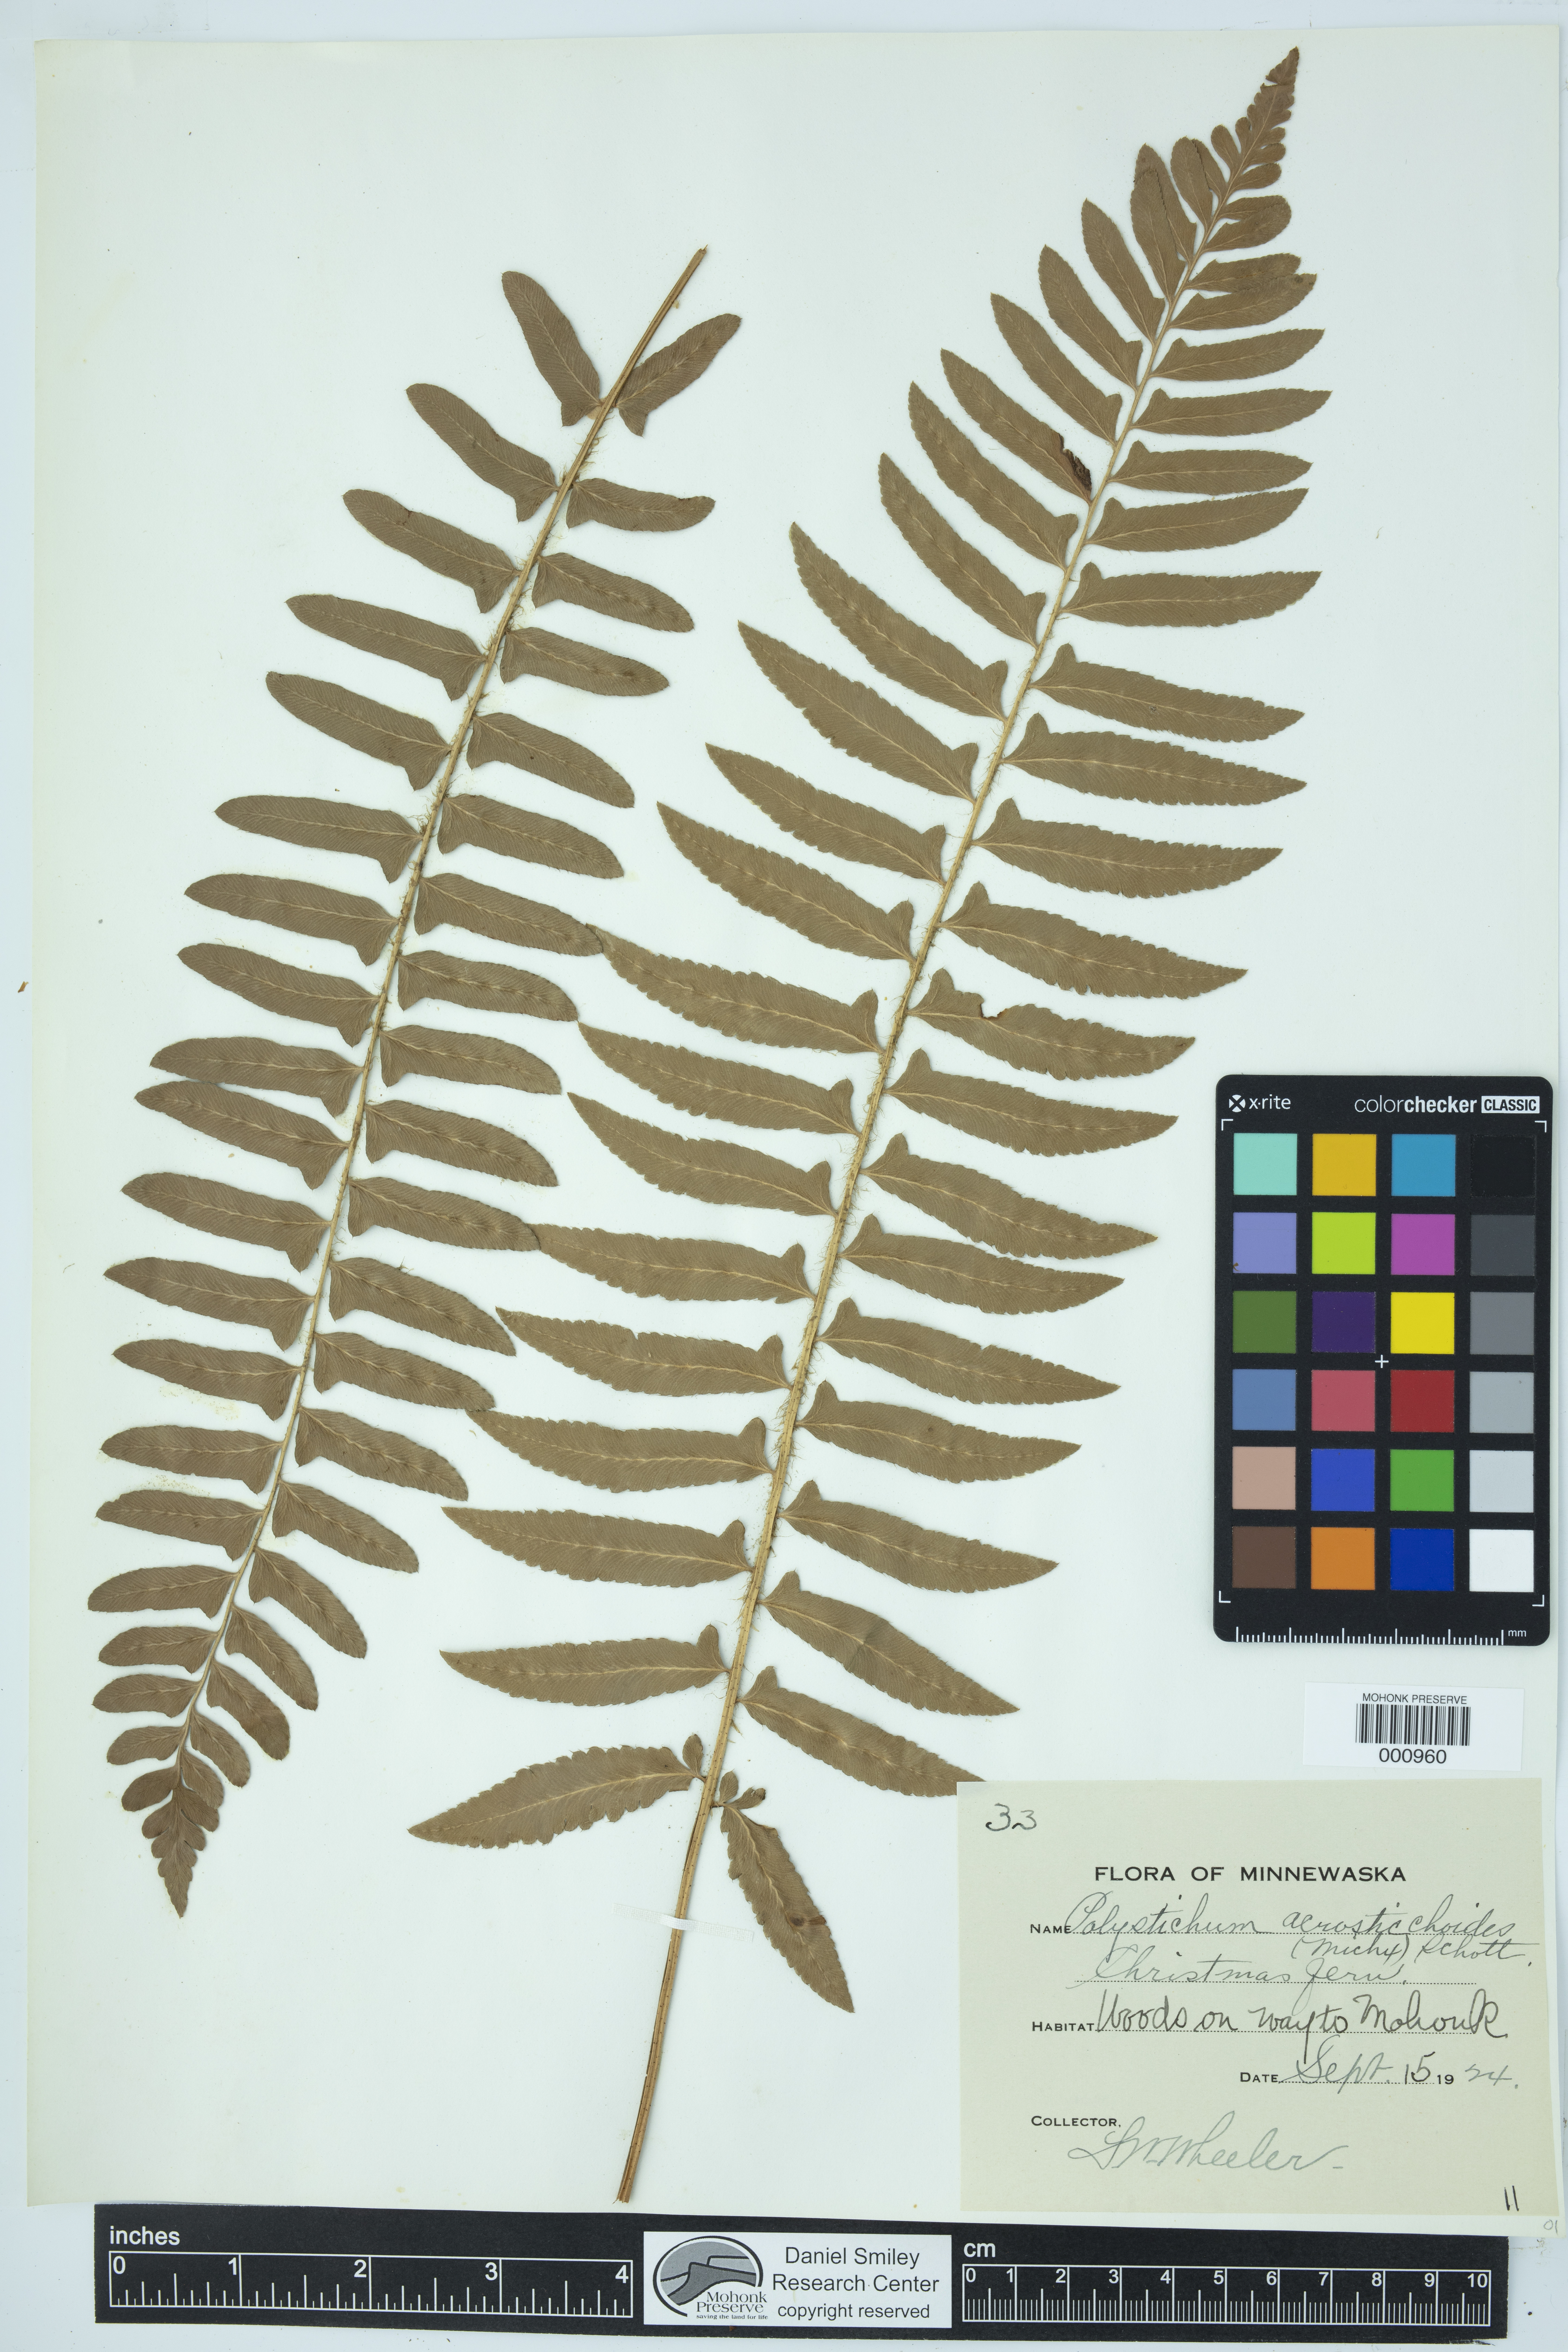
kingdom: Plantae
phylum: Tracheophyta
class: Polypodiopsida
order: Polypodiales
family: Dryopteridaceae
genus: Polystichum
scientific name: Polystichum acrostichoides
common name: Christmas fern
